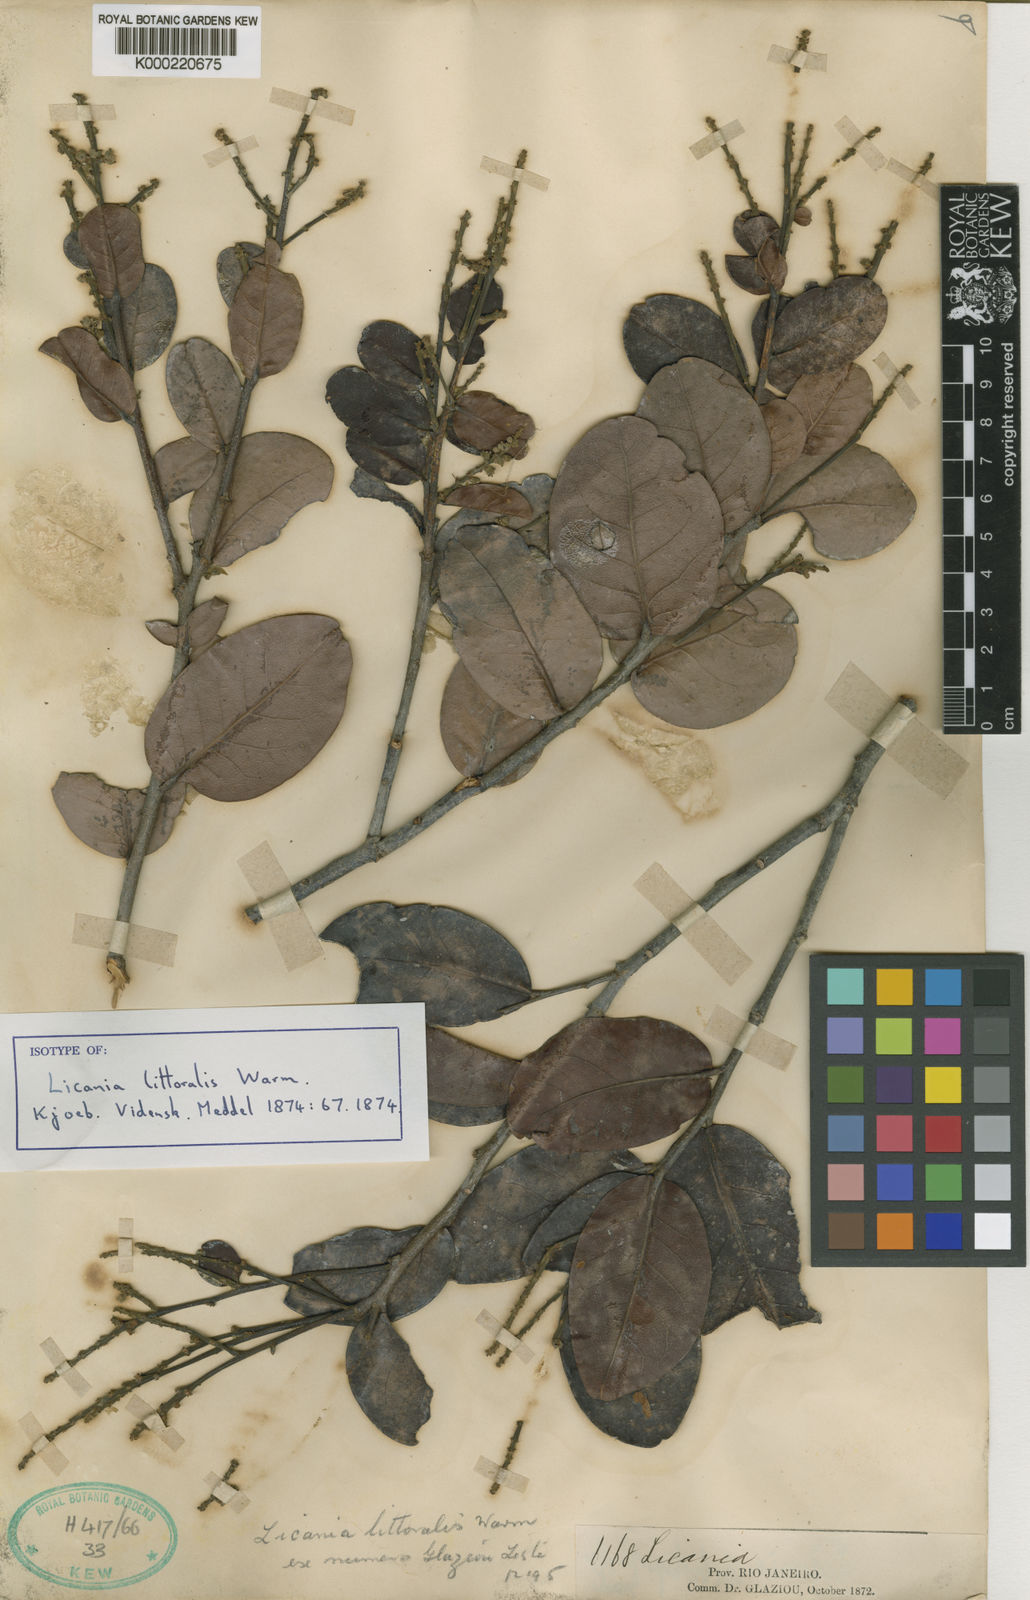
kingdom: Plantae
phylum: Tracheophyta
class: Magnoliopsida
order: Malpighiales
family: Chrysobalanaceae
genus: Licania
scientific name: Licania littoralis
